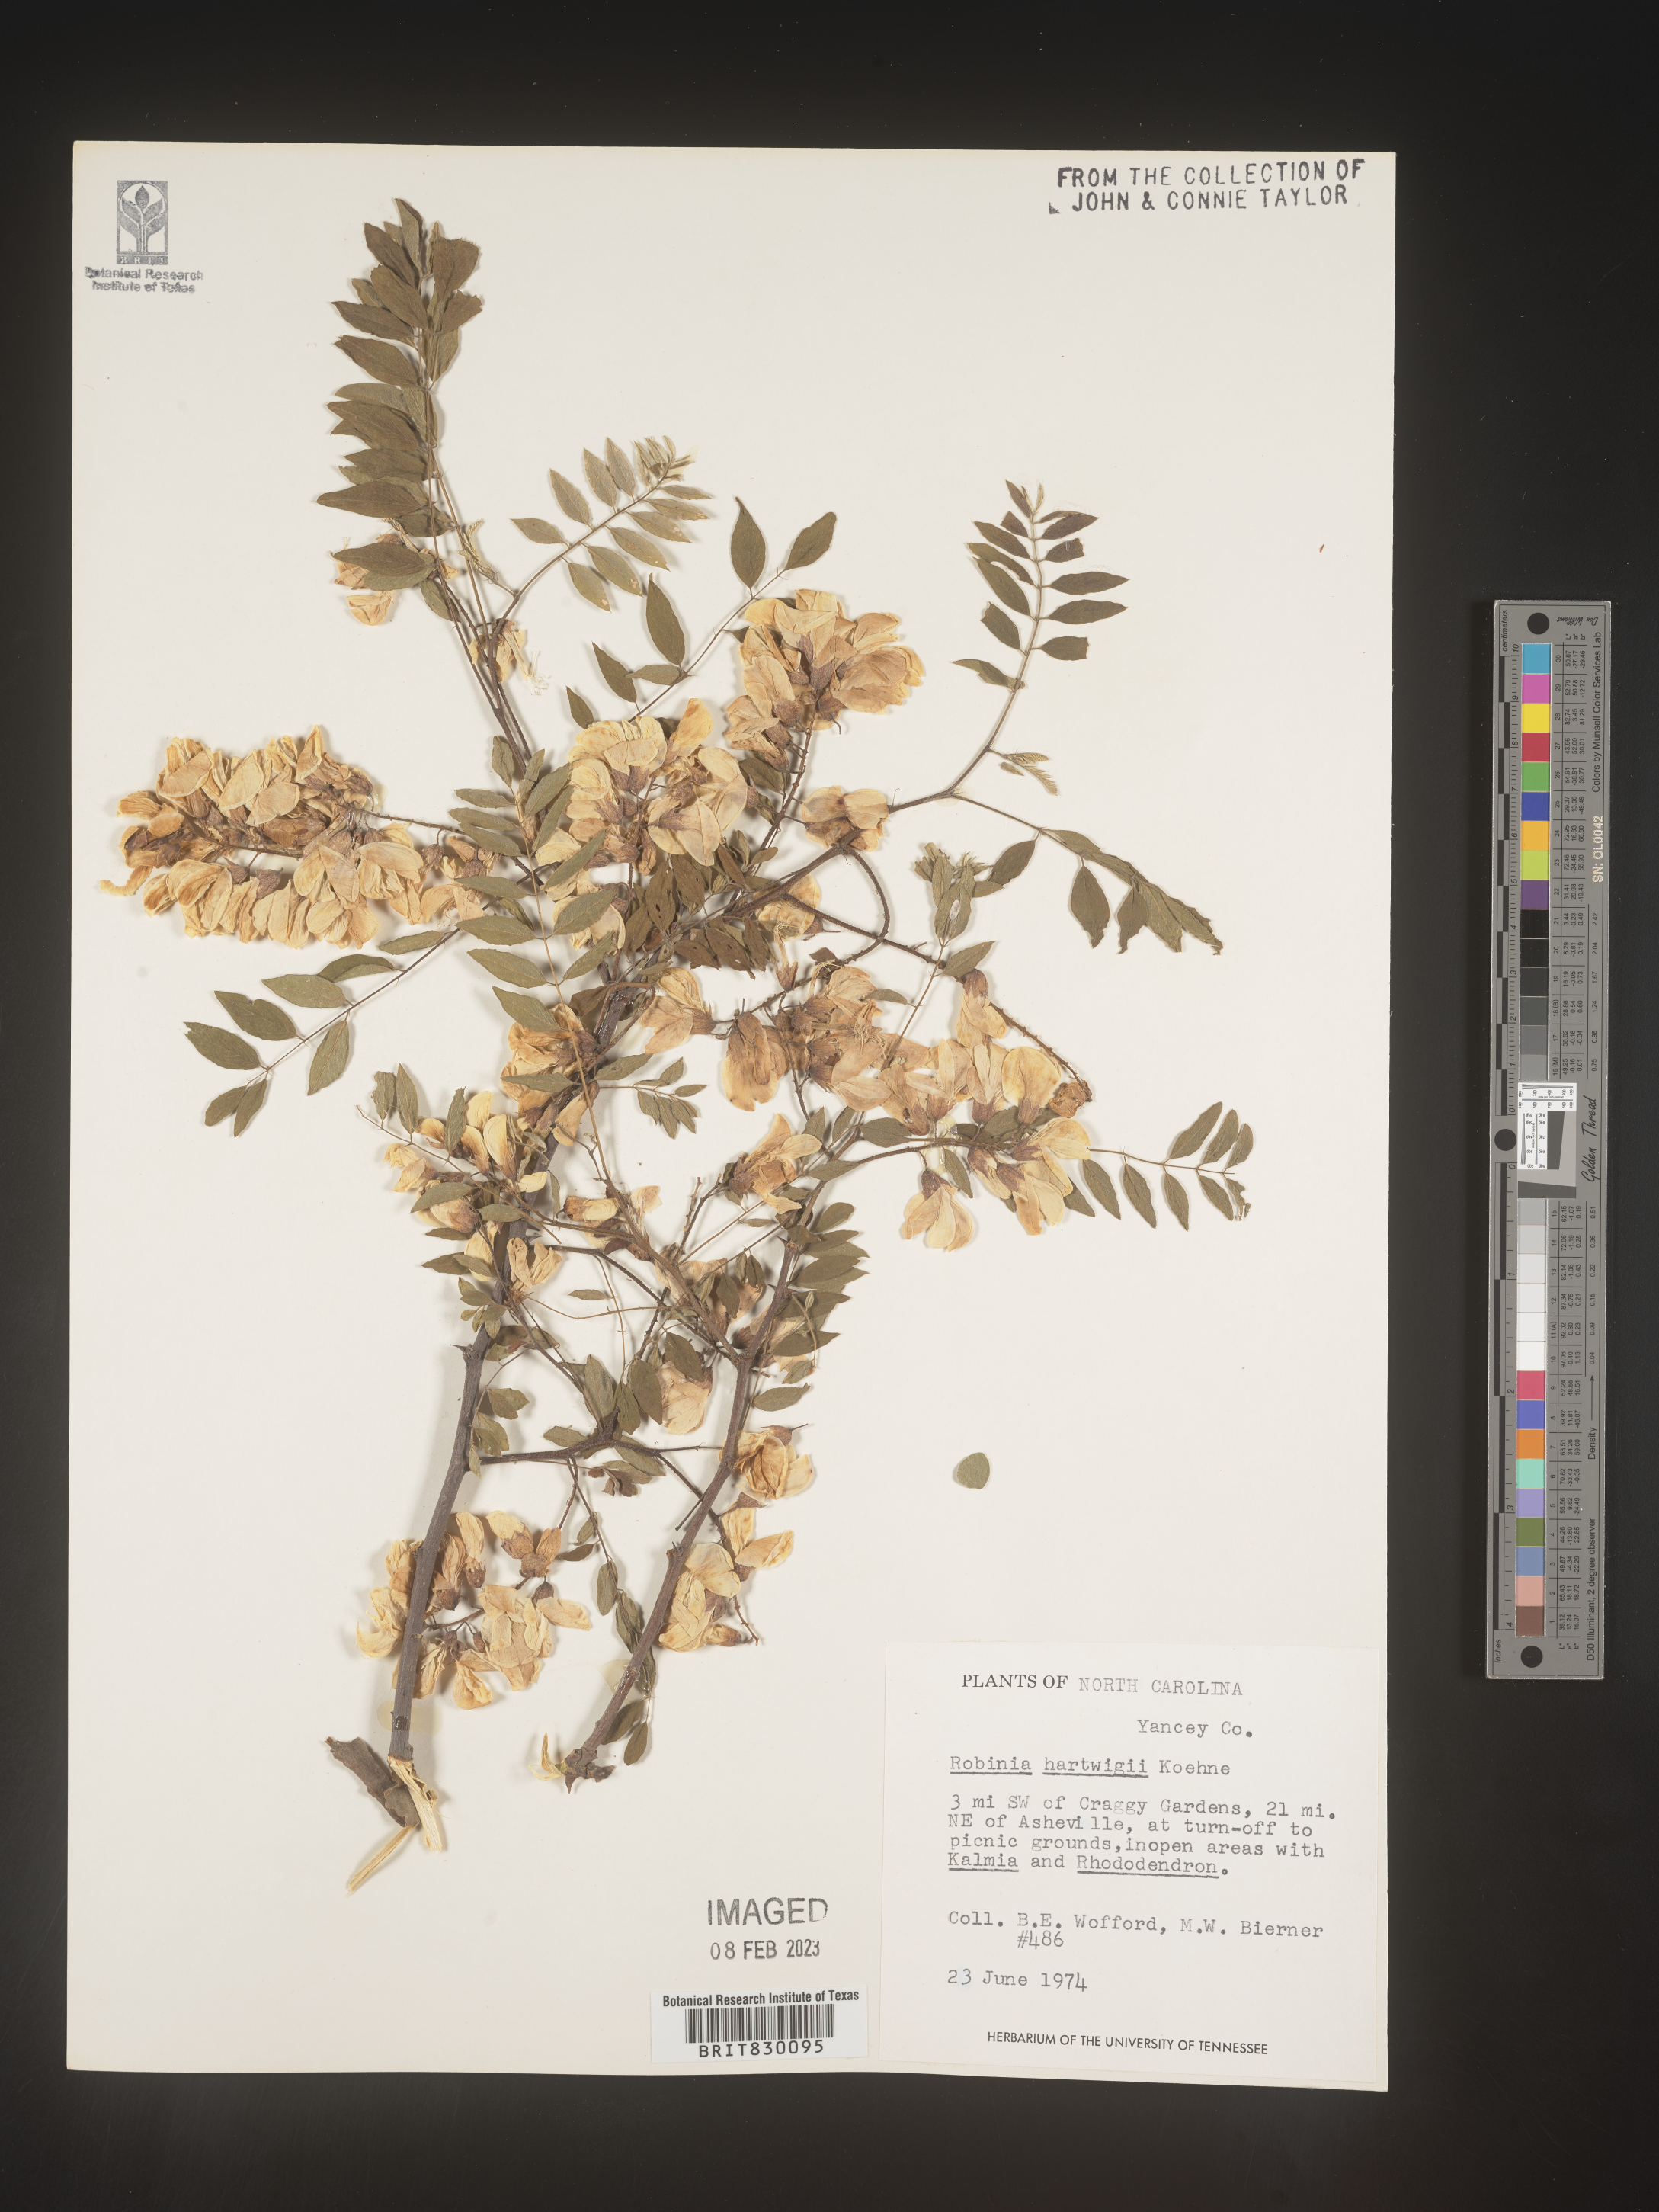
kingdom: Plantae
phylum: Tracheophyta
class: Magnoliopsida
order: Fabales
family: Fabaceae
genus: Robinia
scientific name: Robinia
